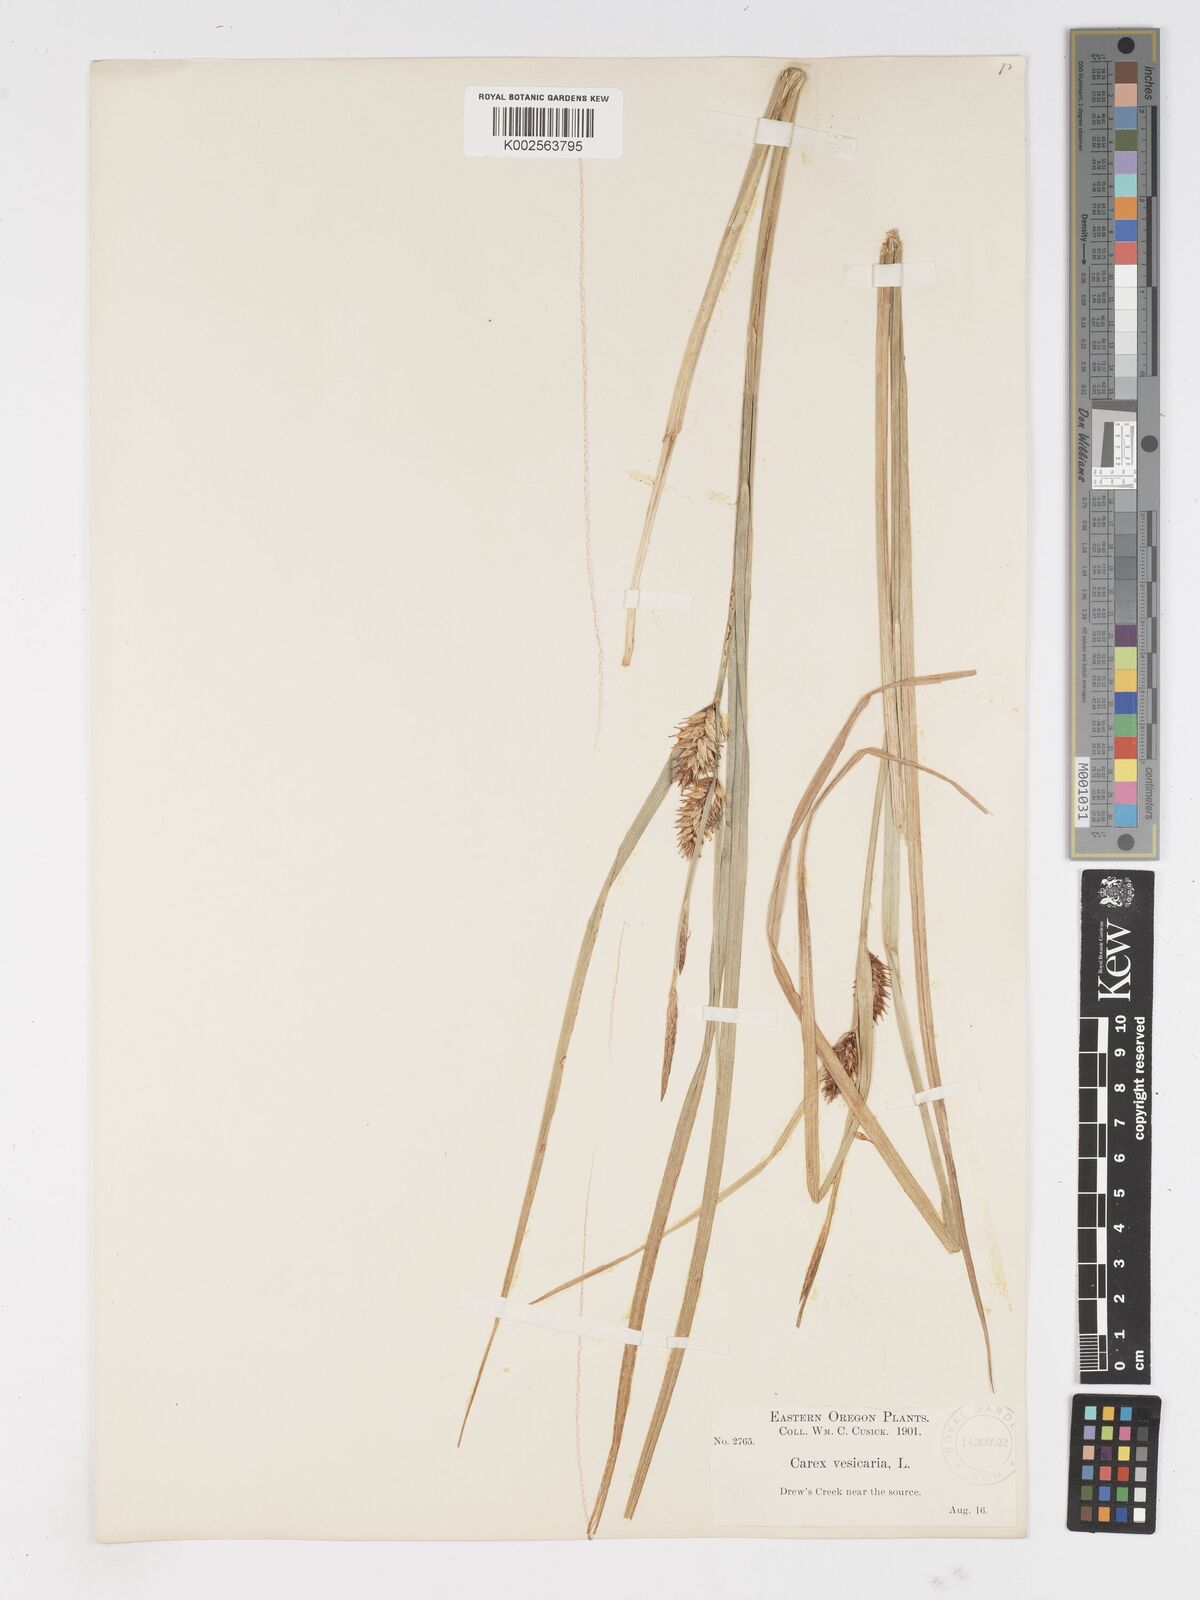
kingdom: Plantae
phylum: Tracheophyta
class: Liliopsida
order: Poales
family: Cyperaceae
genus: Carex
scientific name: Carex vesicaria
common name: Bladder-sedge
